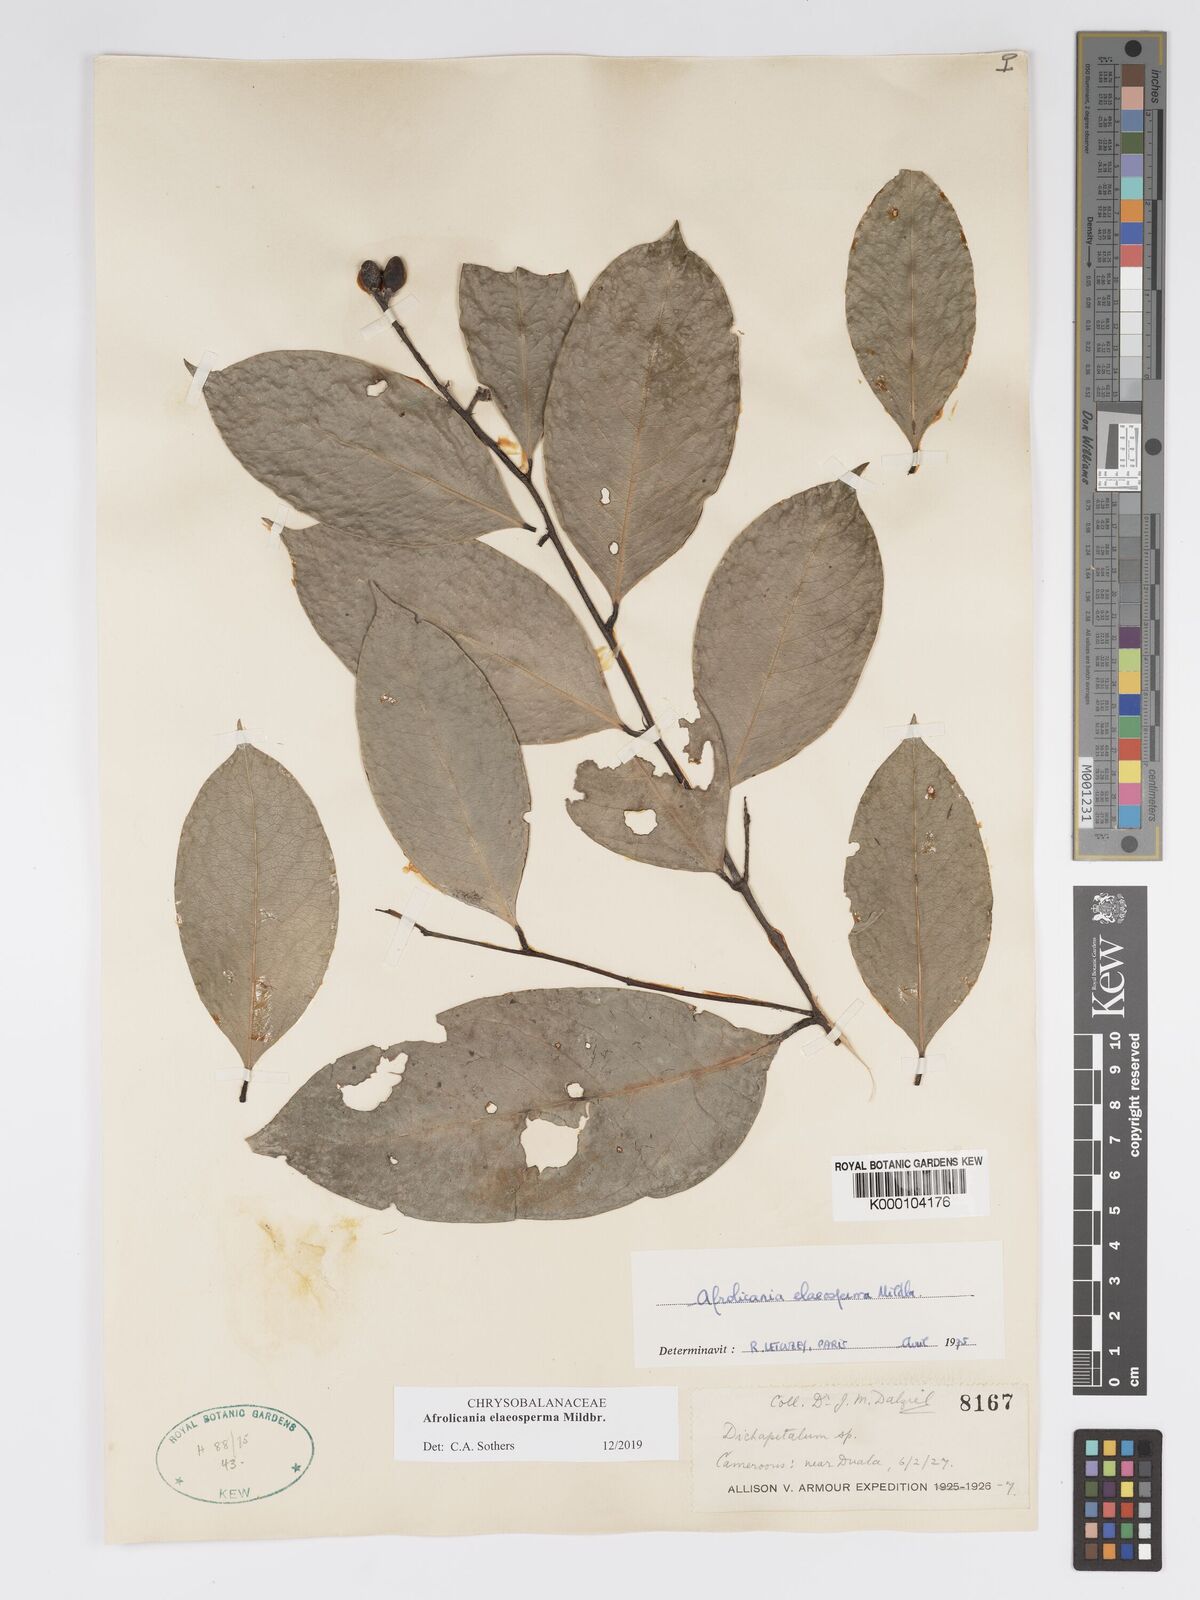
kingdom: Plantae
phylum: Tracheophyta
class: Magnoliopsida
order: Malpighiales
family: Chrysobalanaceae
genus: Afrolicania
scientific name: Afrolicania elaeosperma
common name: Nikko
